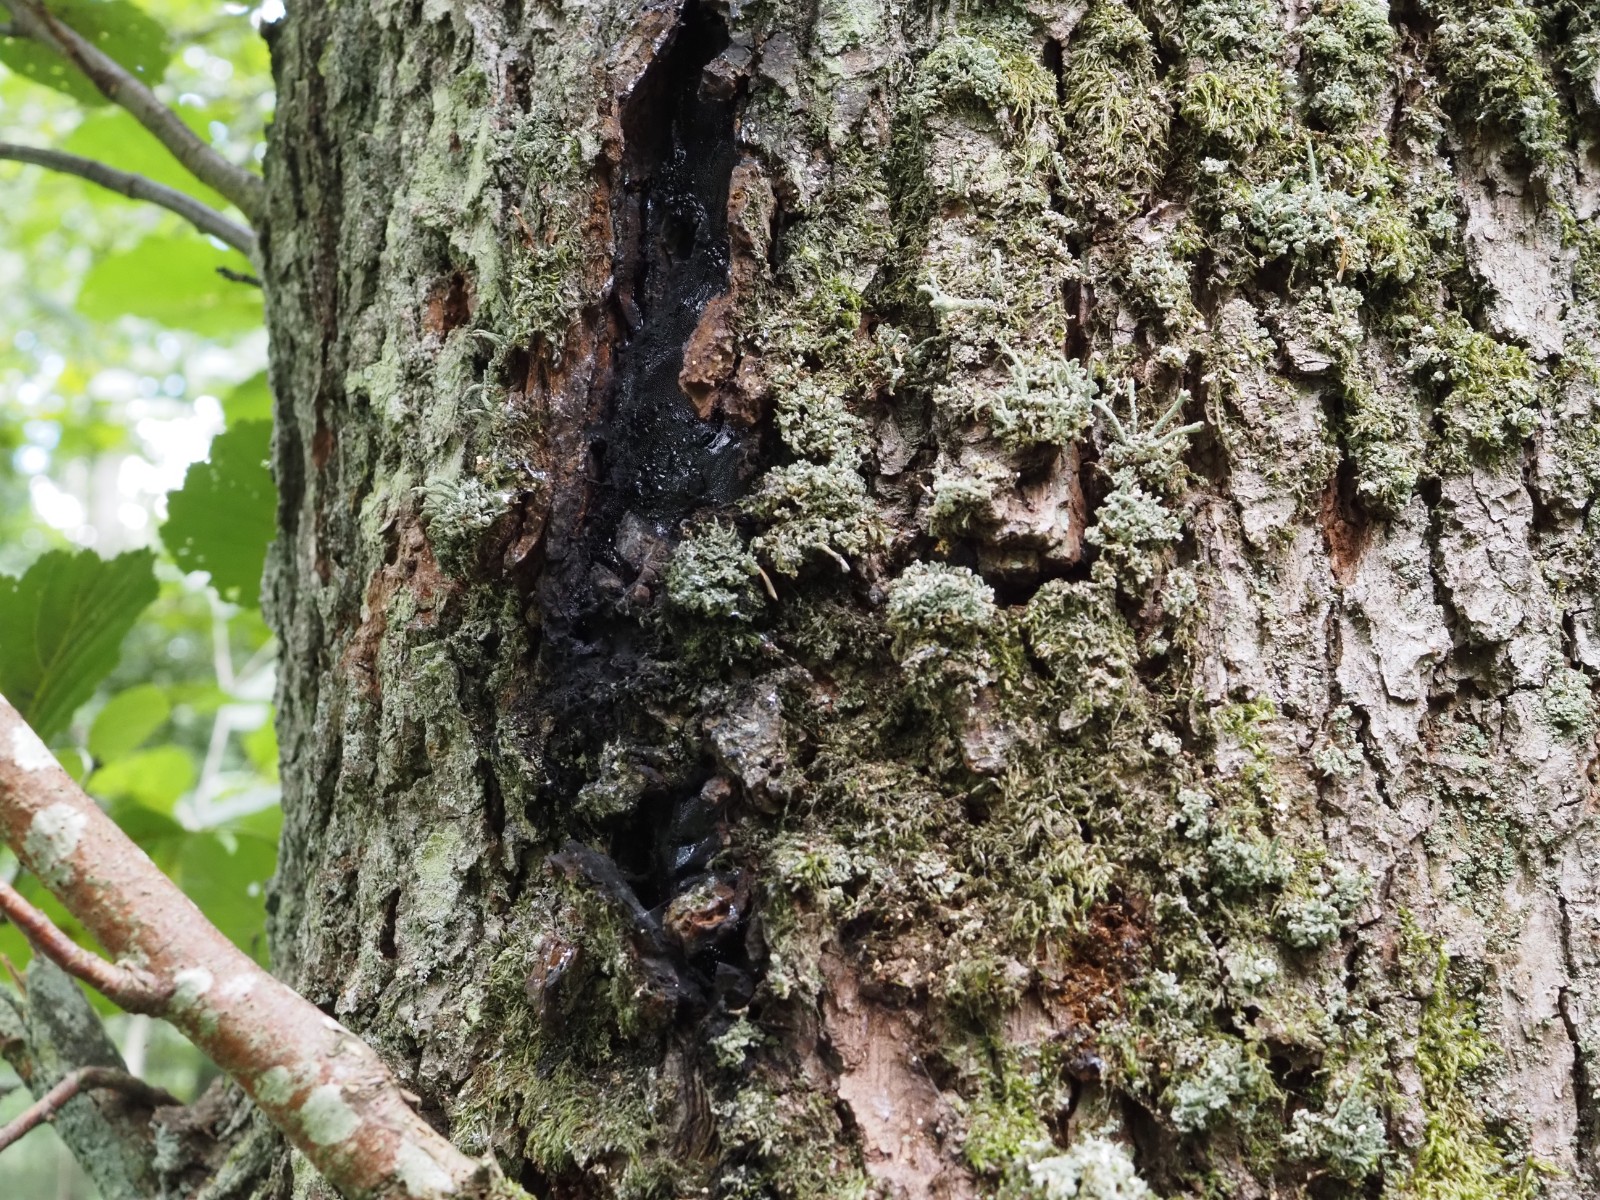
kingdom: Fungi
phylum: Ascomycota
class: Sordariomycetes
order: Boliniales
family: Boliniaceae
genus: Camarops
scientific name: Camarops polysperma
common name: elle-kulsnegl
